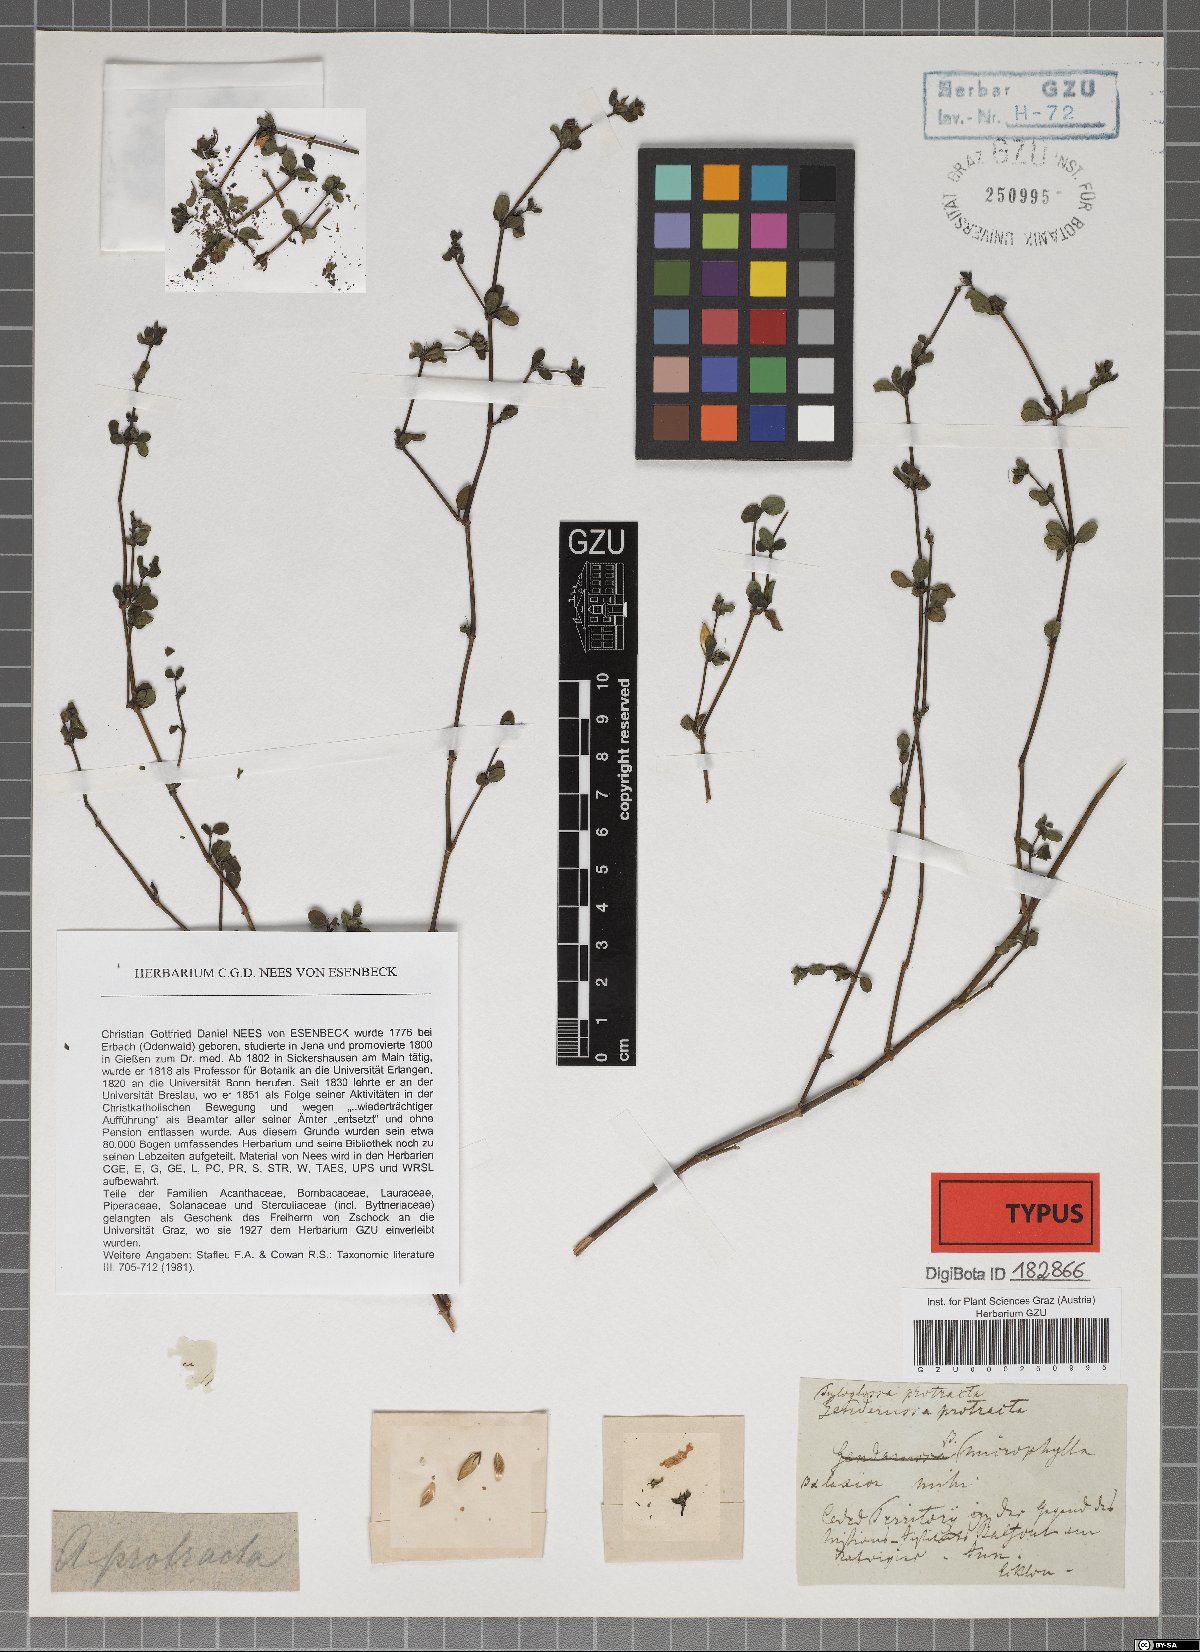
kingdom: Plantae
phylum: Tracheophyta
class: Magnoliopsida
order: Lamiales
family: Acanthaceae
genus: Justicia
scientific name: Justicia protracta
